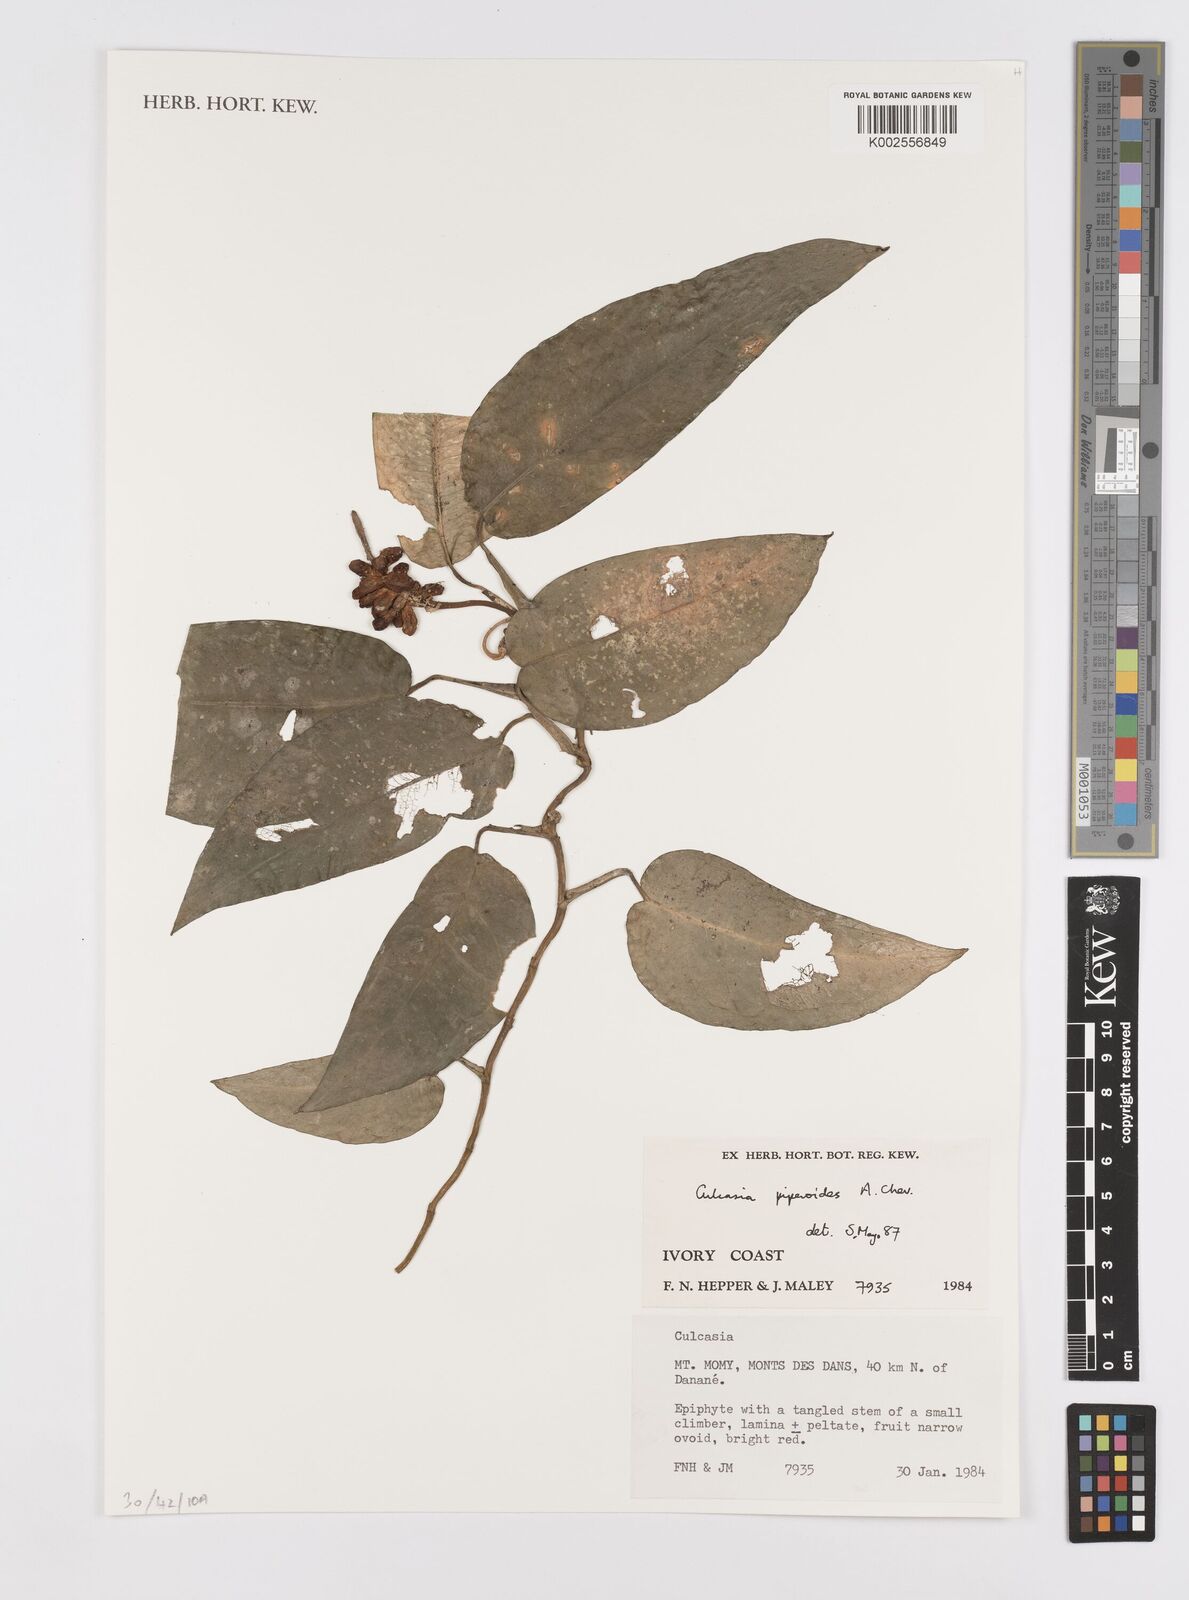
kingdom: Plantae
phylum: Tracheophyta
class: Liliopsida
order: Alismatales
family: Araceae
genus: Culcasia
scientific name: Culcasia parviflora
